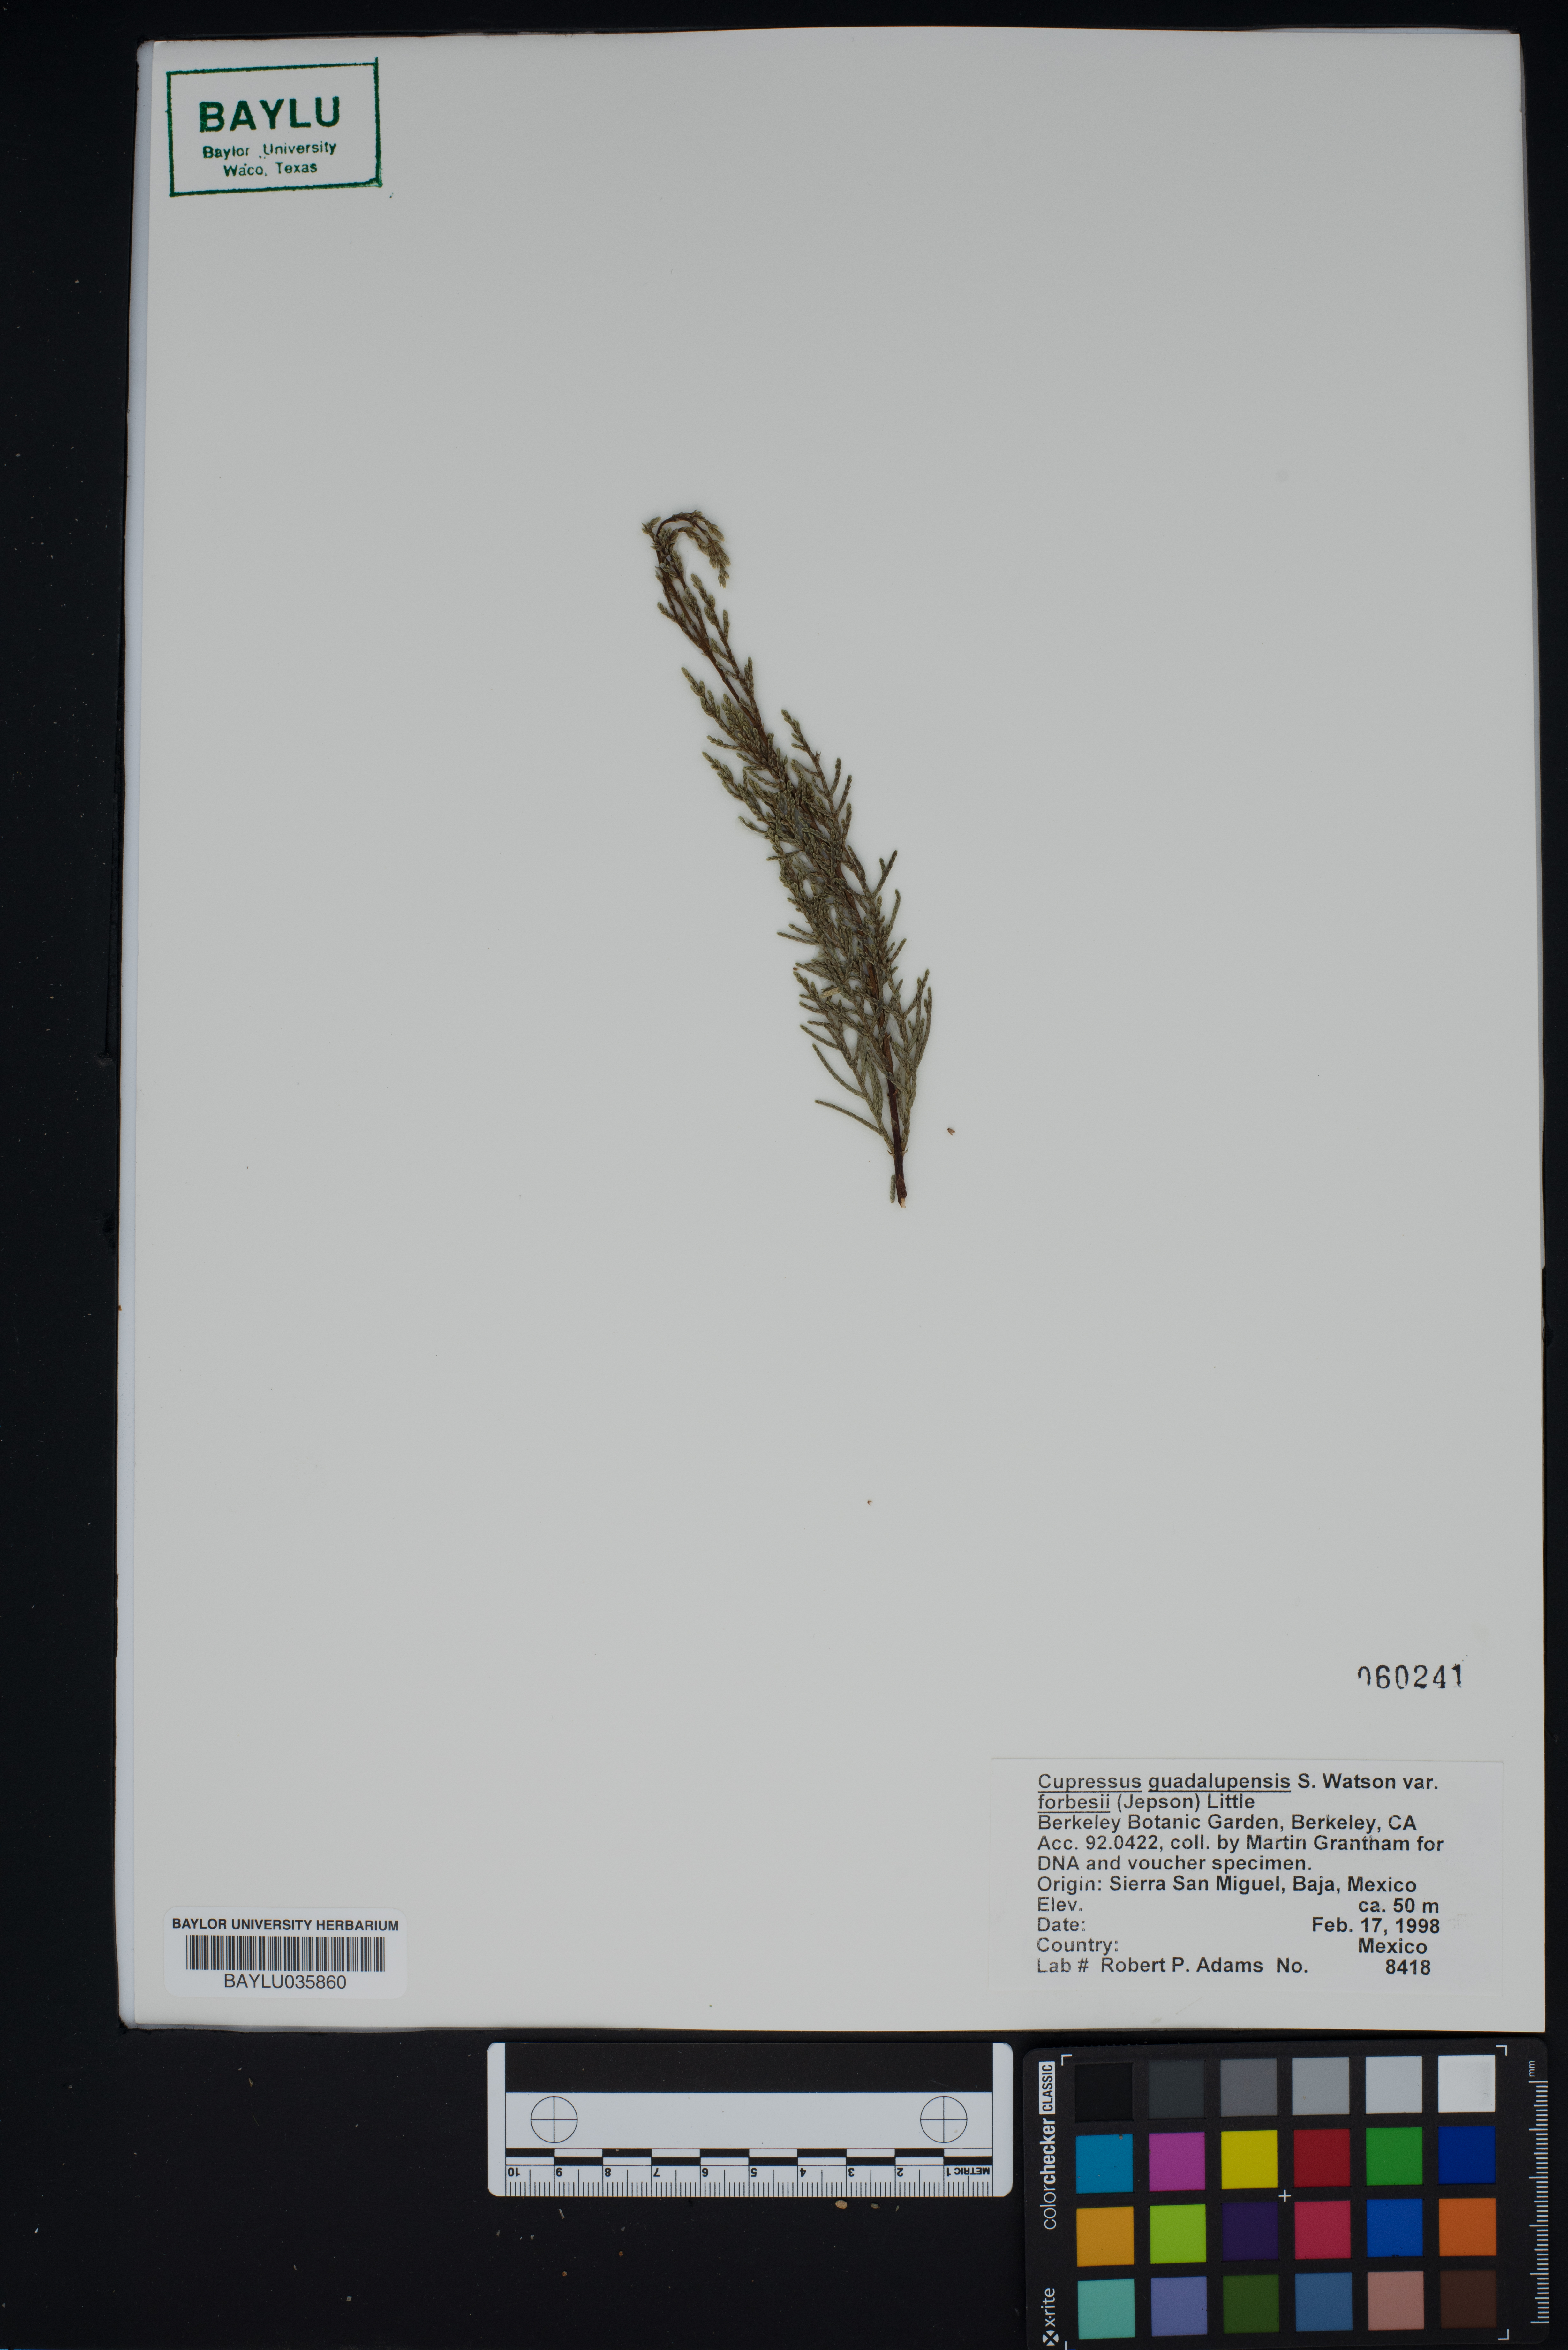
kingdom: Plantae
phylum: Tracheophyta
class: Pinopsida
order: Pinales
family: Cupressaceae
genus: Cupressus
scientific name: Cupressus guadalupensis
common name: Forbes cypress
